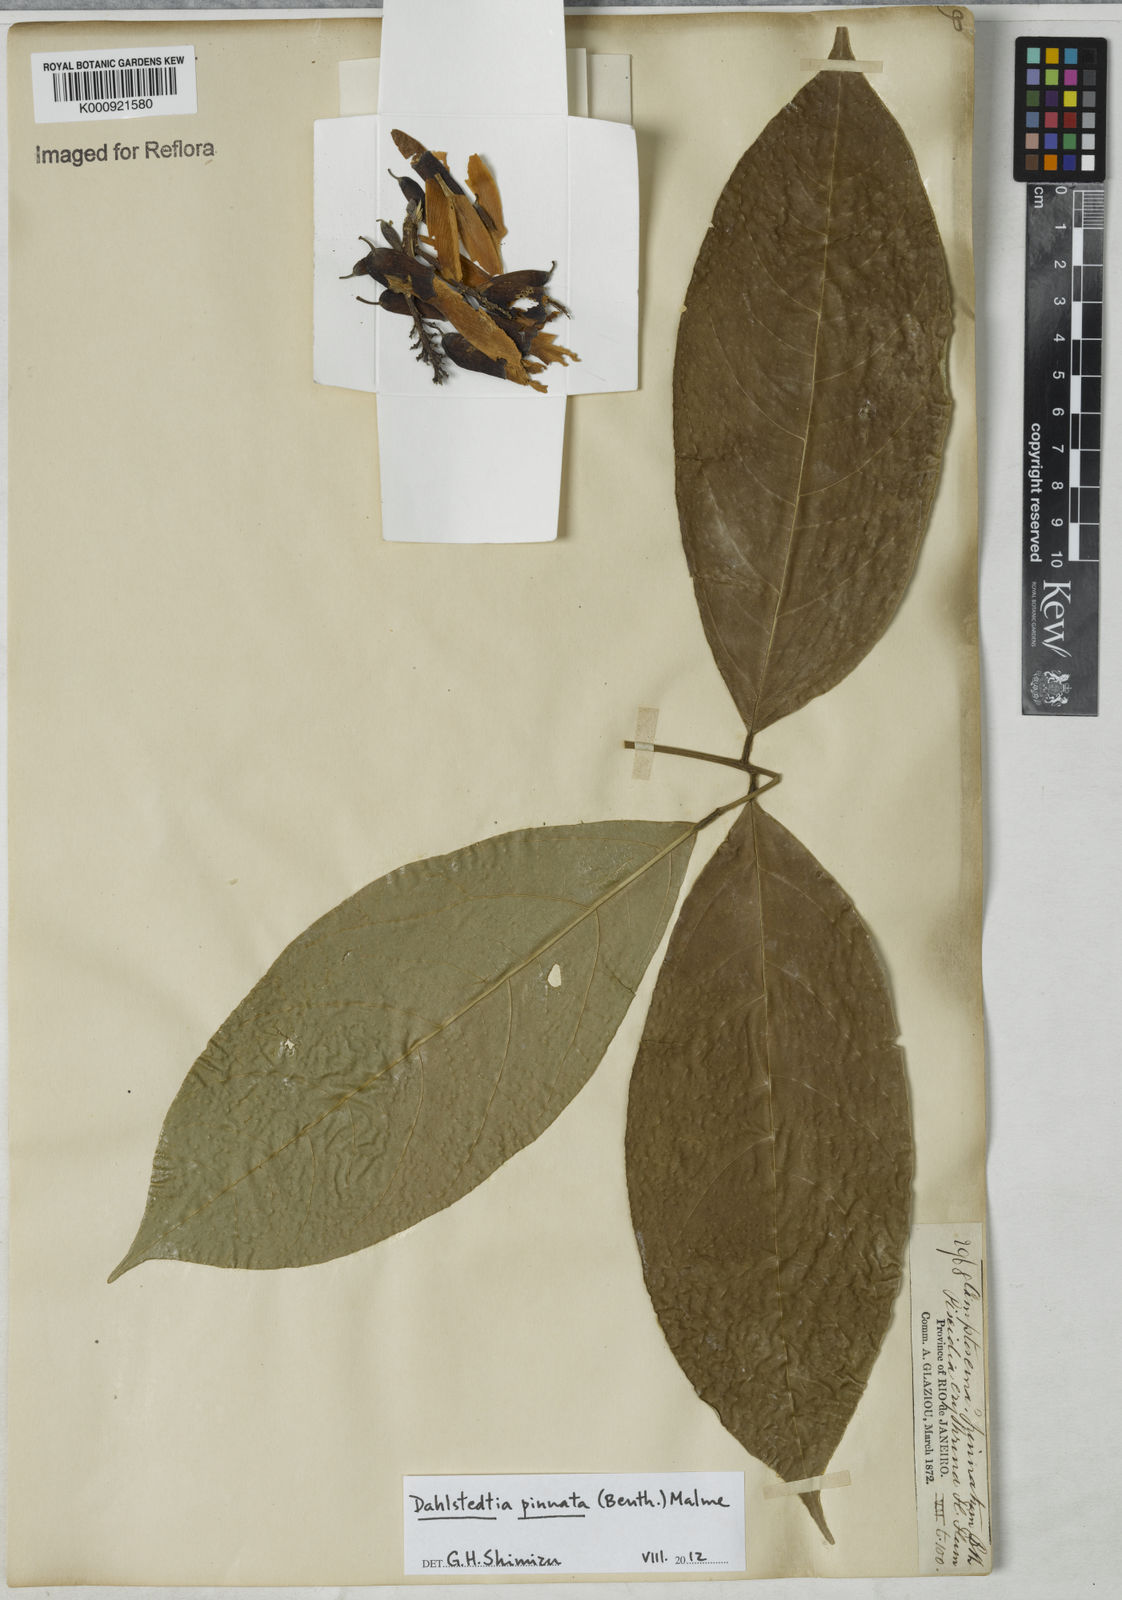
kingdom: Plantae
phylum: Tracheophyta
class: Magnoliopsida
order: Fabales
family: Fabaceae
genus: Dahlstedtia
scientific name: Dahlstedtia pinnata
